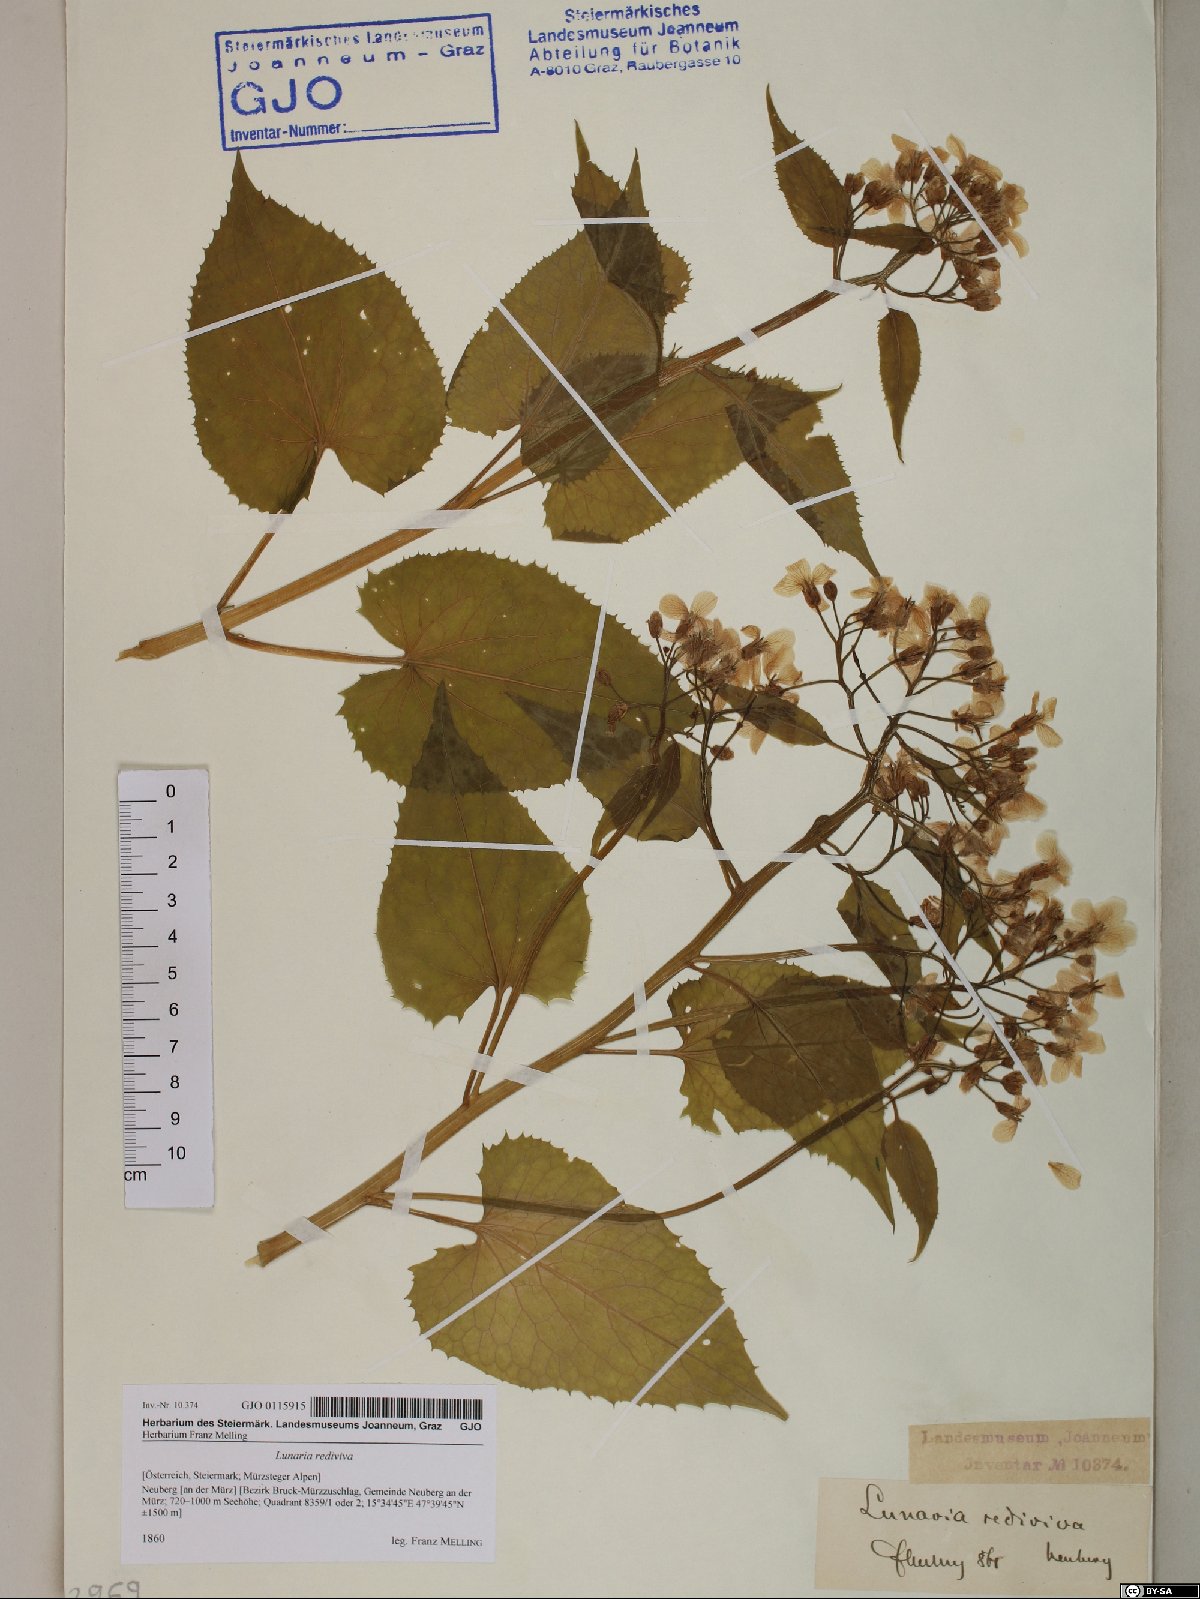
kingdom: Plantae
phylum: Tracheophyta
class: Magnoliopsida
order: Brassicales
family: Brassicaceae
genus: Lunaria
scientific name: Lunaria rediviva
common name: Perennial honesty
